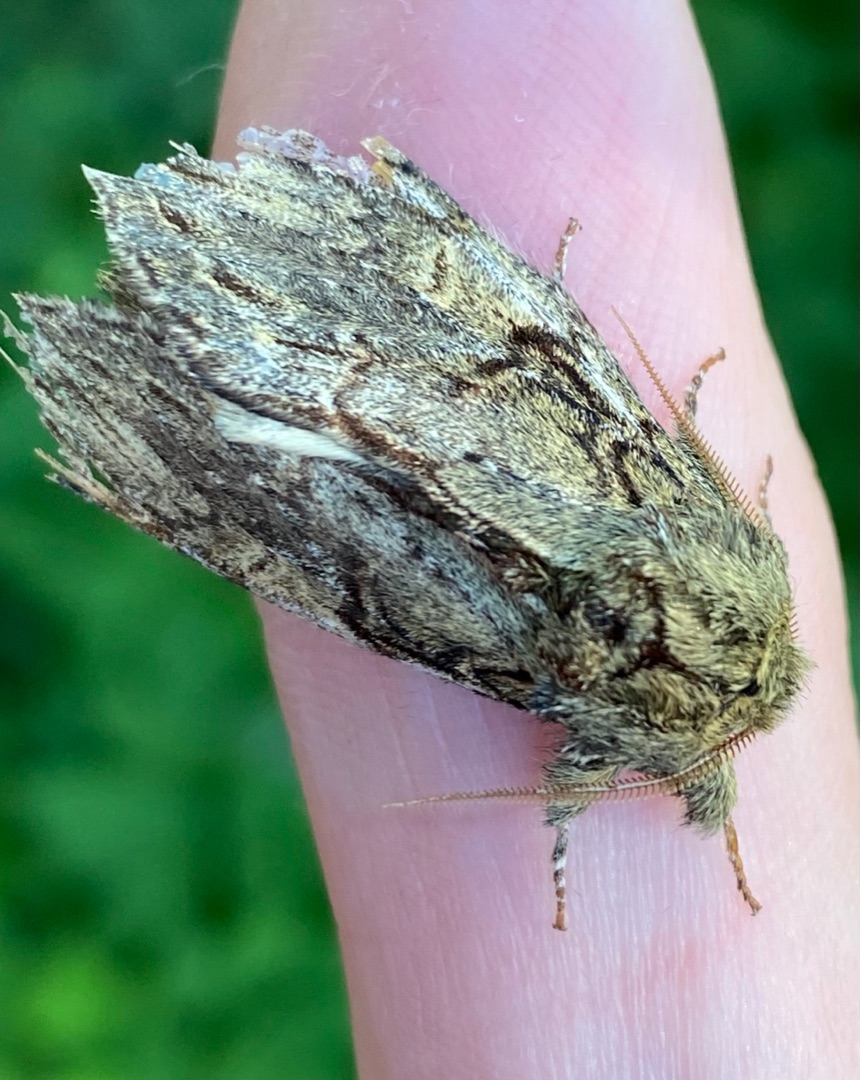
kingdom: Animalia
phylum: Arthropoda
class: Insecta
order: Lepidoptera
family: Notodontidae
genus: Peridea
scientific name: Peridea anceps
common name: Egetandspinder
